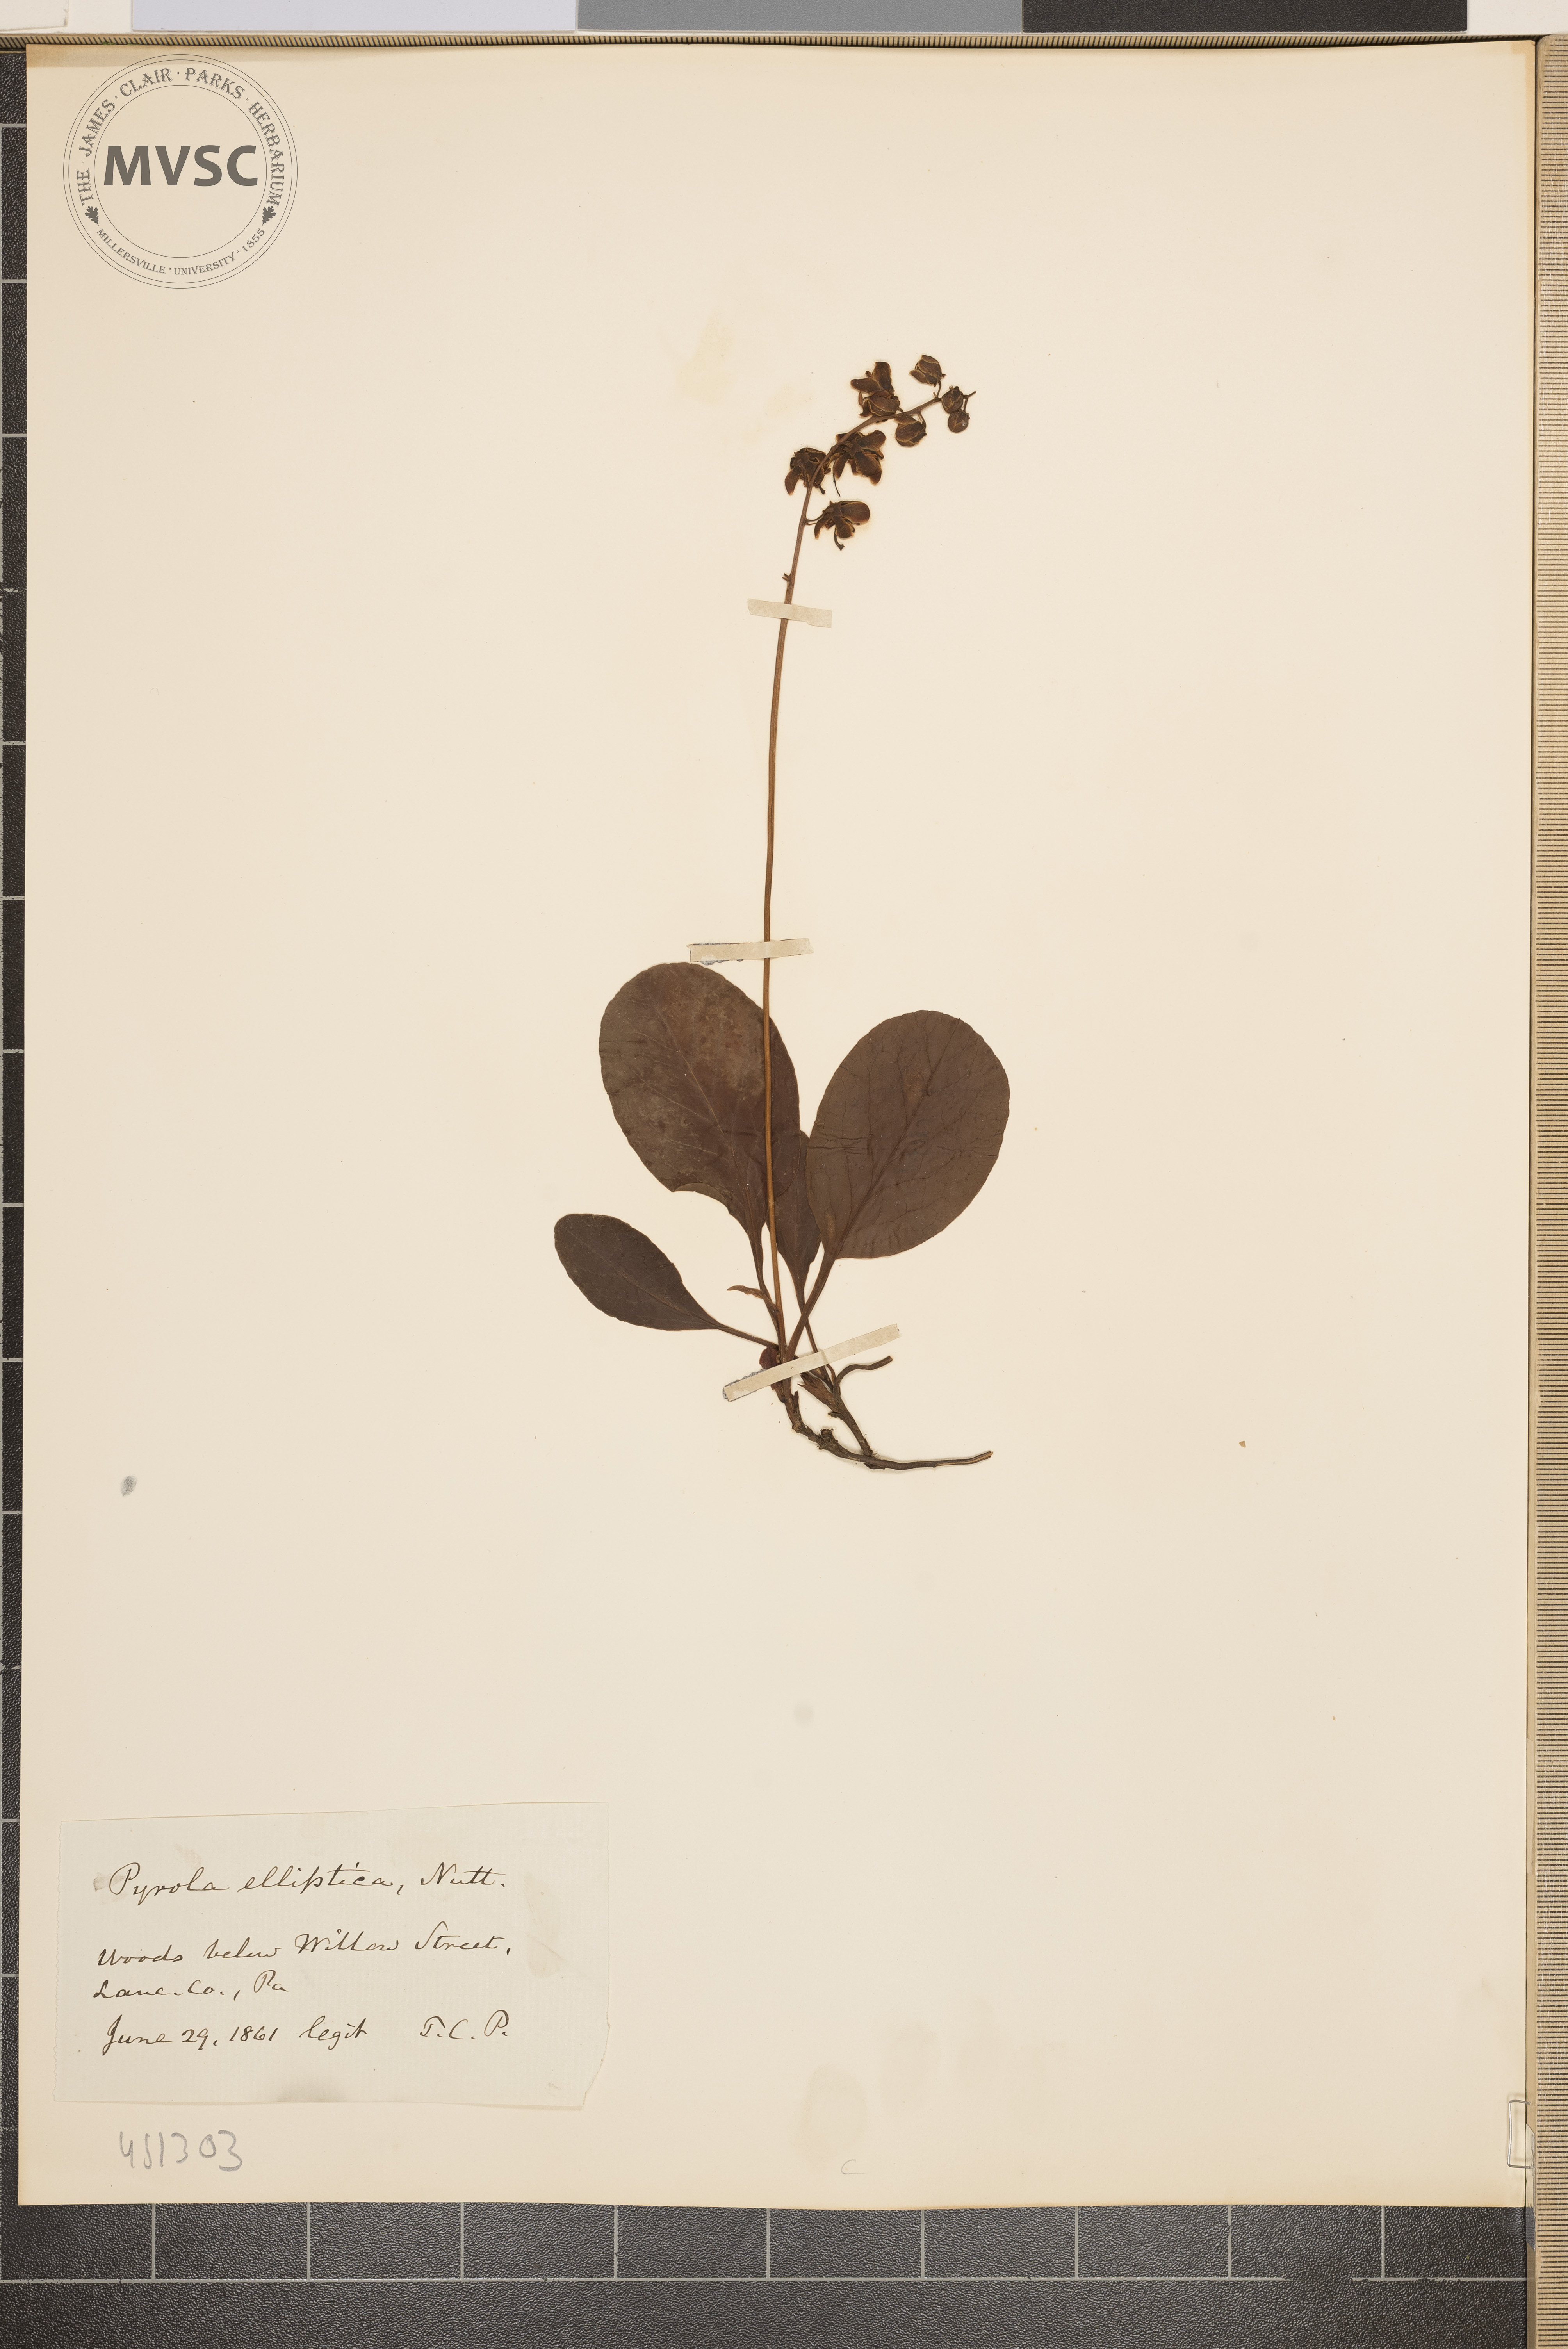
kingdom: Plantae
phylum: Tracheophyta
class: Magnoliopsida
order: Ericales
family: Ericaceae
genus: Pyrola
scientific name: Pyrola elliptica
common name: Shinleaf
